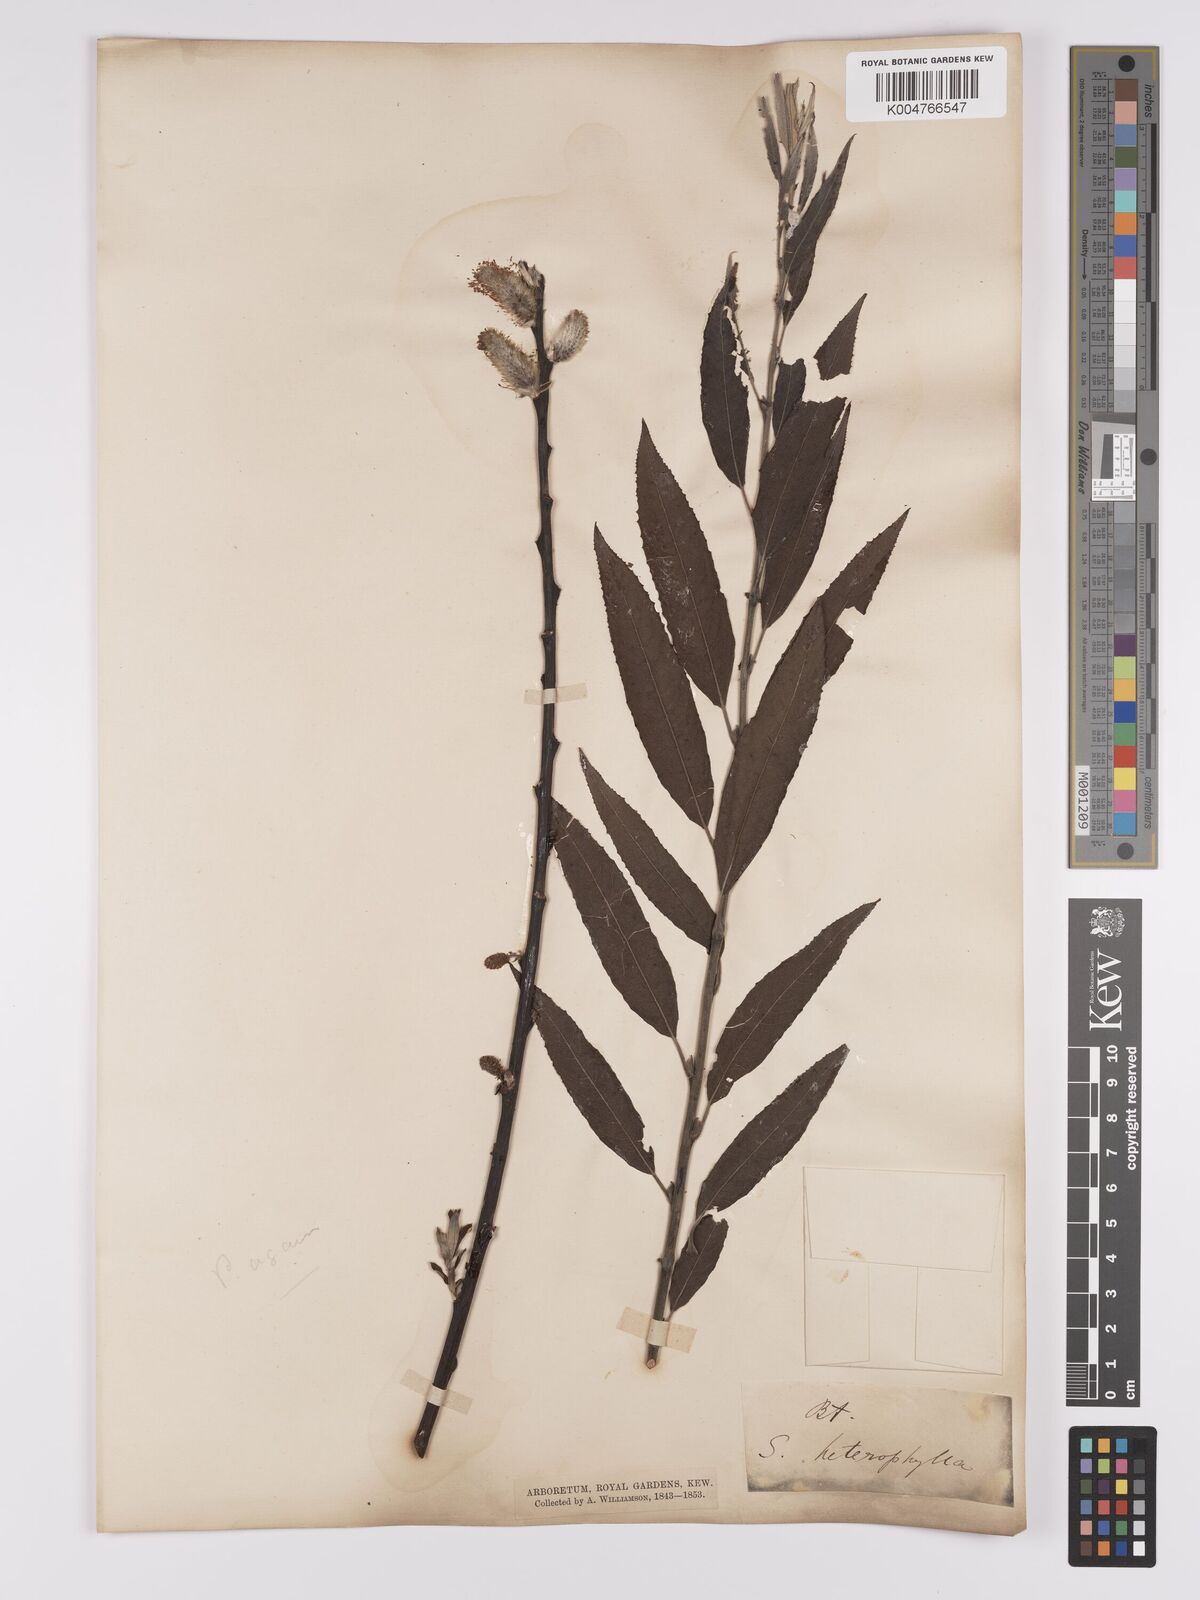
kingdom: Plantae
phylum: Tracheophyta
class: Magnoliopsida
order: Malpighiales
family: Salicaceae
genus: Salix
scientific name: Salix caprea
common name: Goat willow
